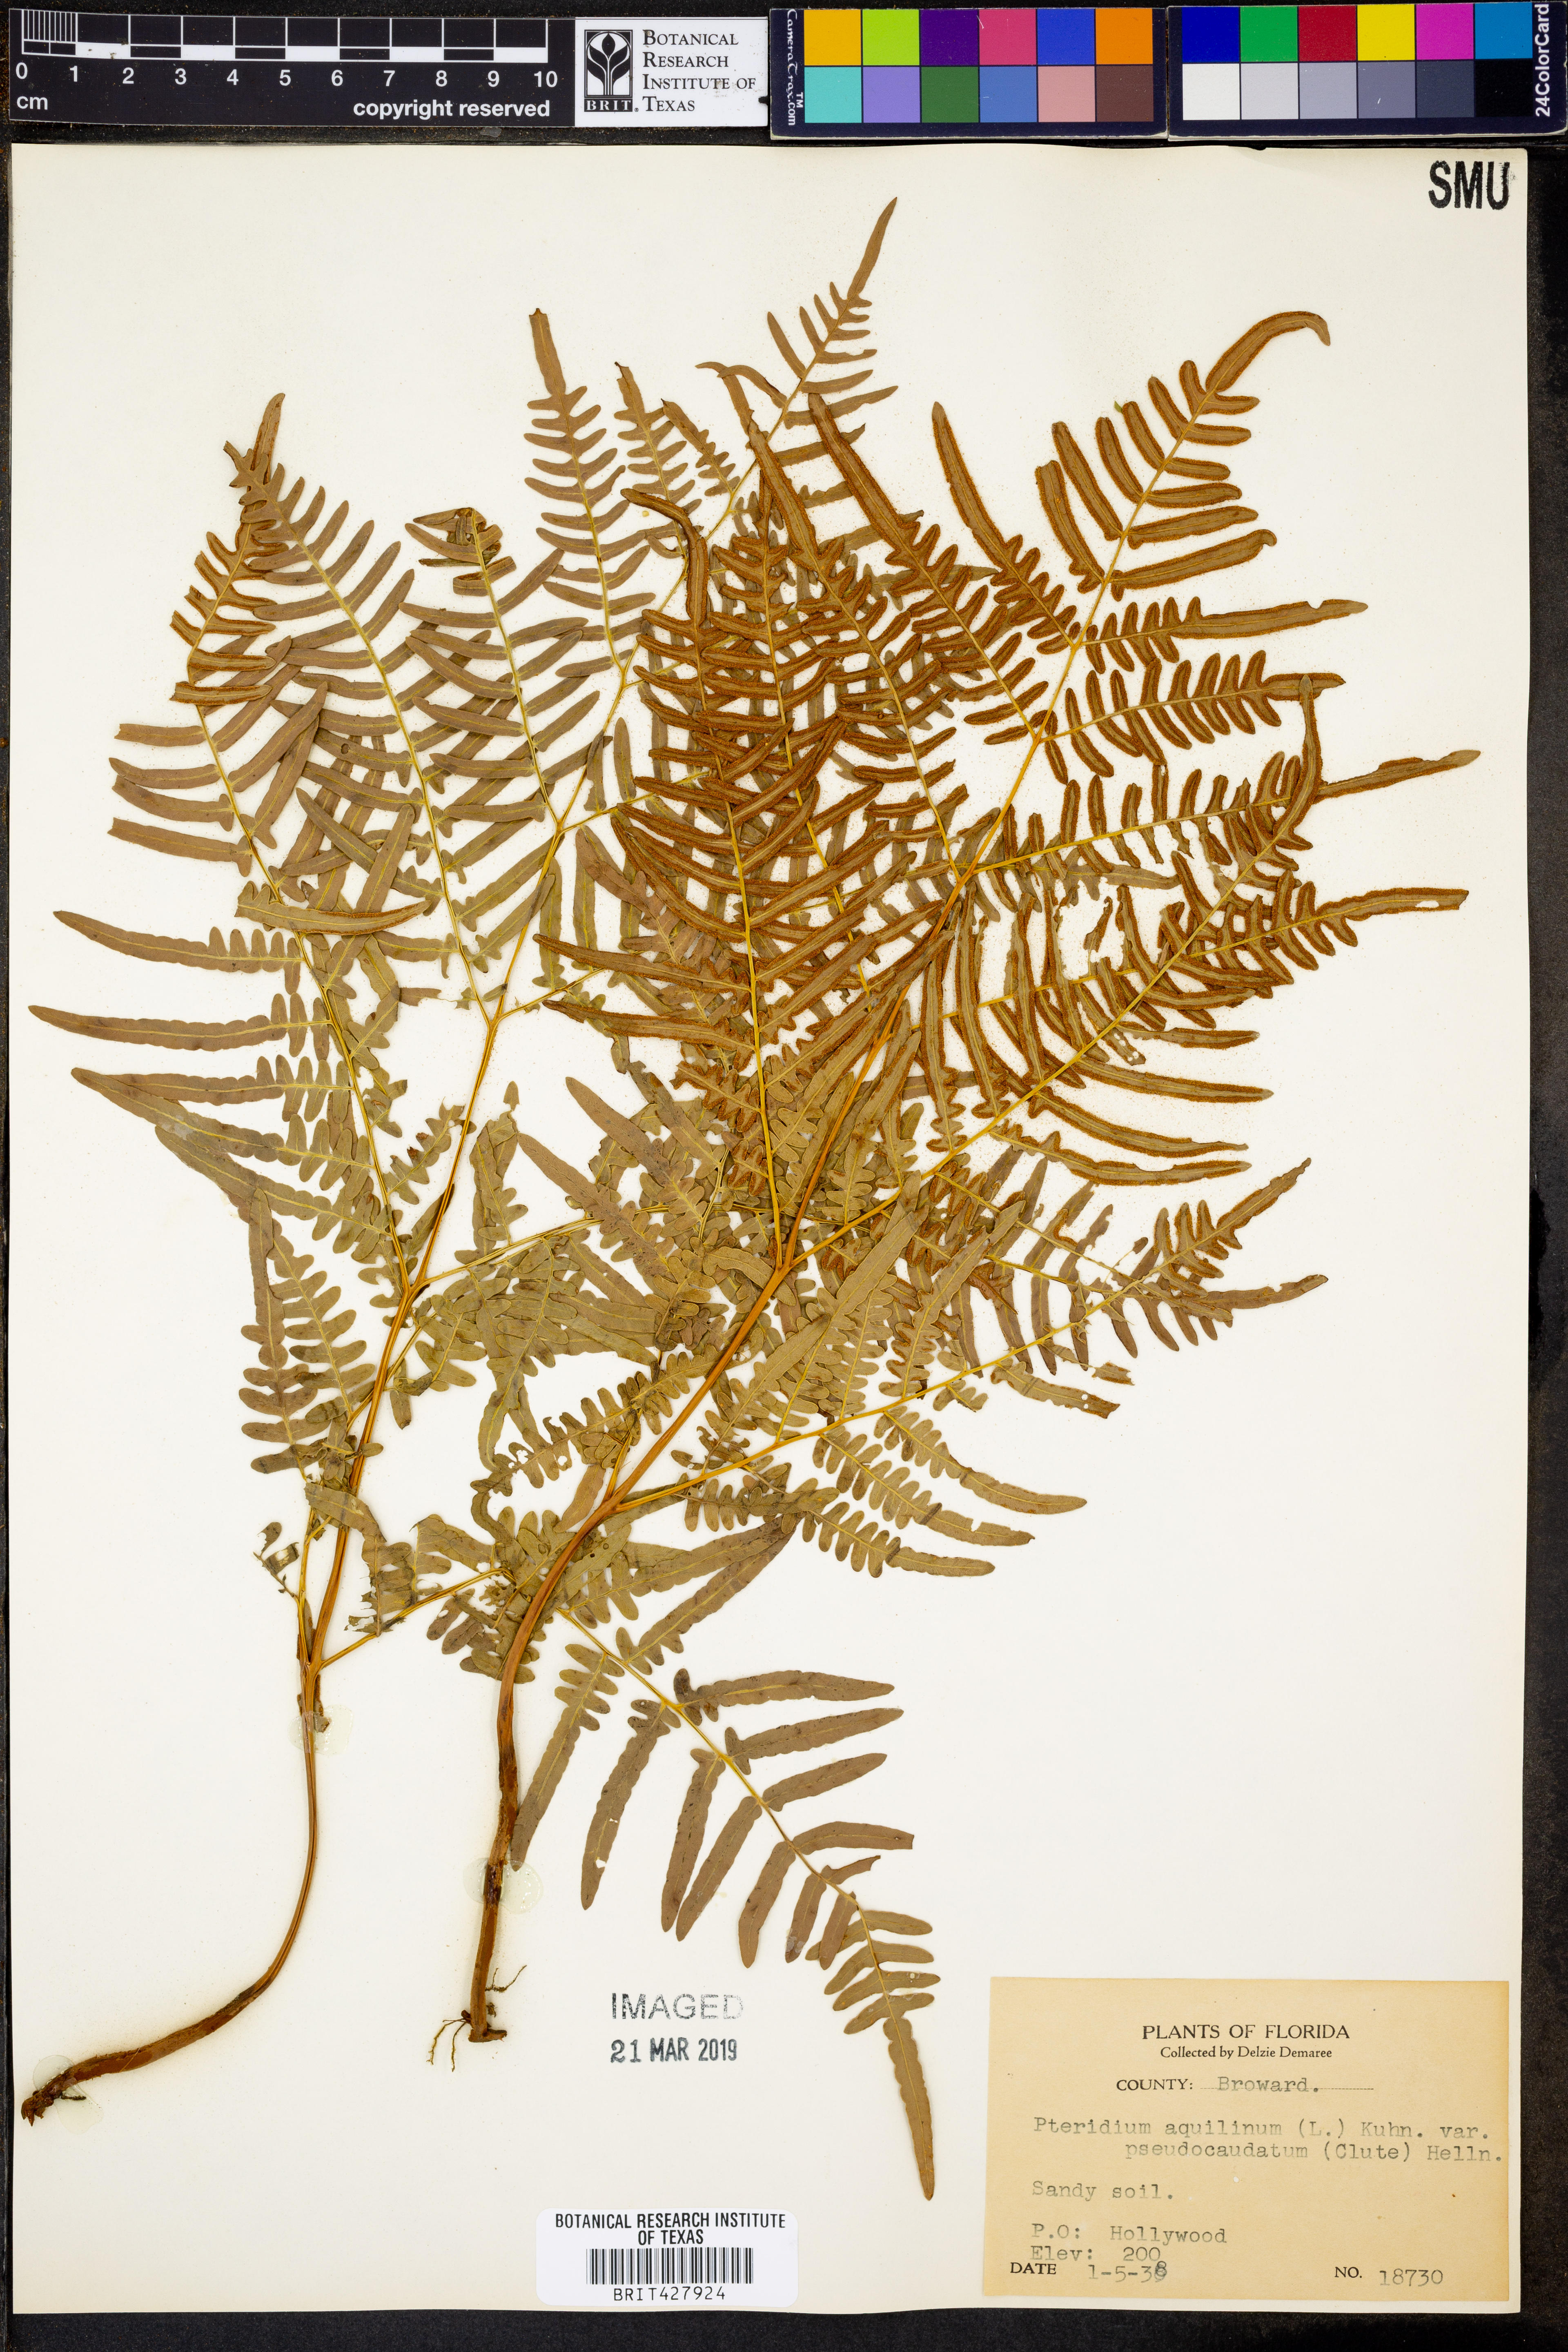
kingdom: Plantae
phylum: Tracheophyta
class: Polypodiopsida
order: Polypodiales
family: Dennstaedtiaceae
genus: Pteridium
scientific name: Pteridium aquilinum
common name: Bracken
